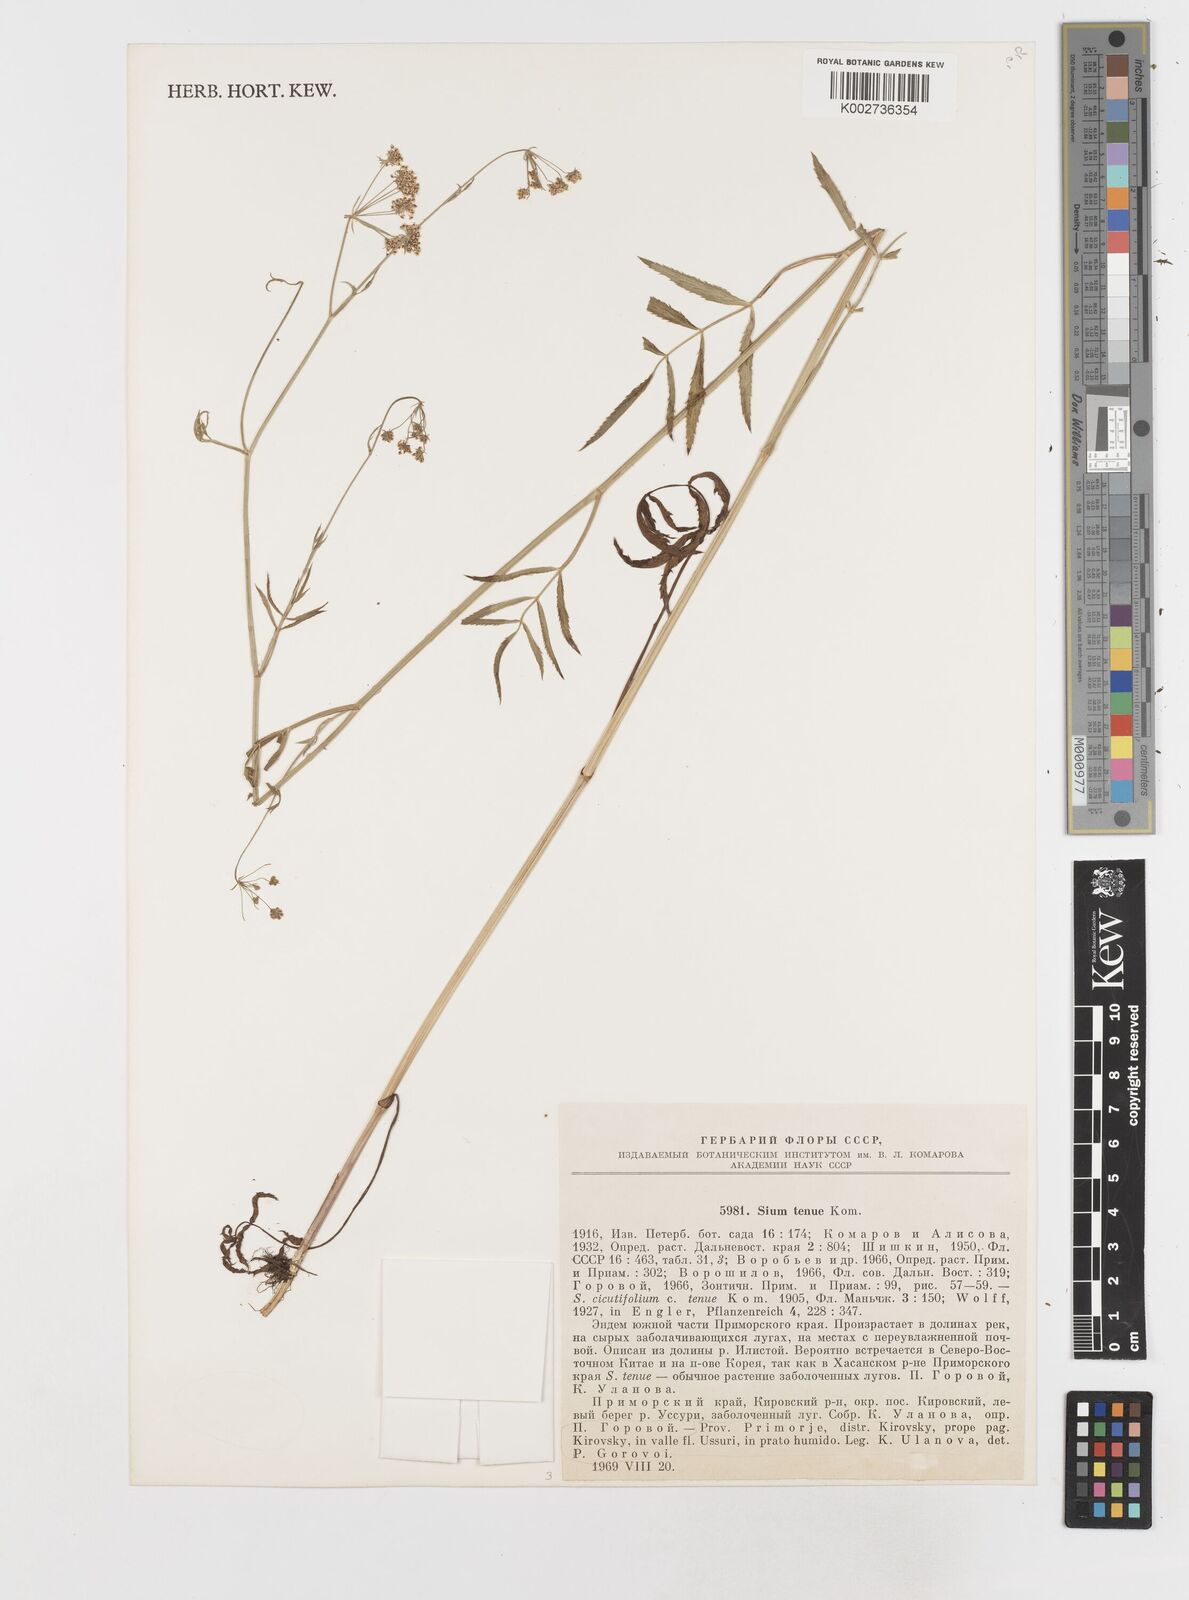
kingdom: Plantae
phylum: Tracheophyta
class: Magnoliopsida
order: Apiales
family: Apiaceae
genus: Sium
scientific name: Sium tenue
